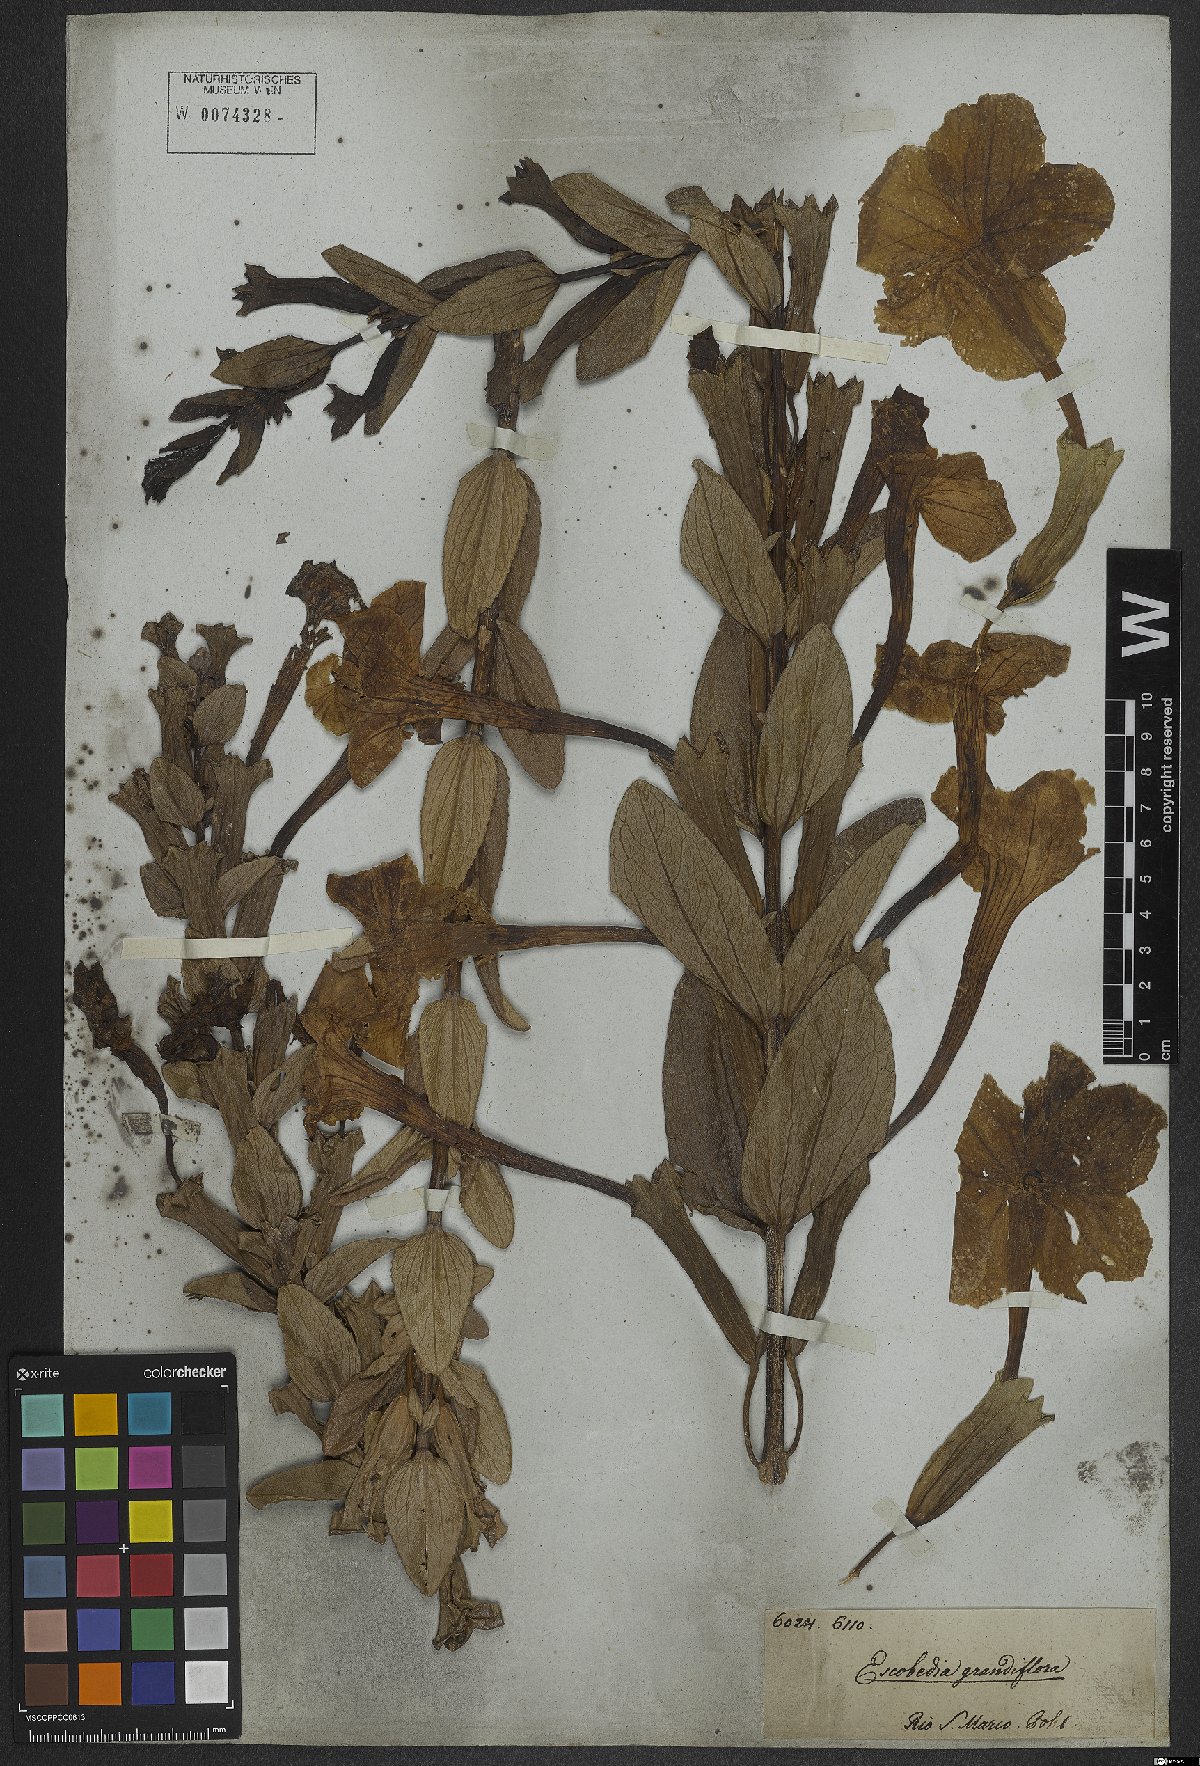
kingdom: Plantae
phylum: Tracheophyta
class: Magnoliopsida
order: Lamiales
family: Orobanchaceae
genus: Escobedia
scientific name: Escobedia grandiflora
